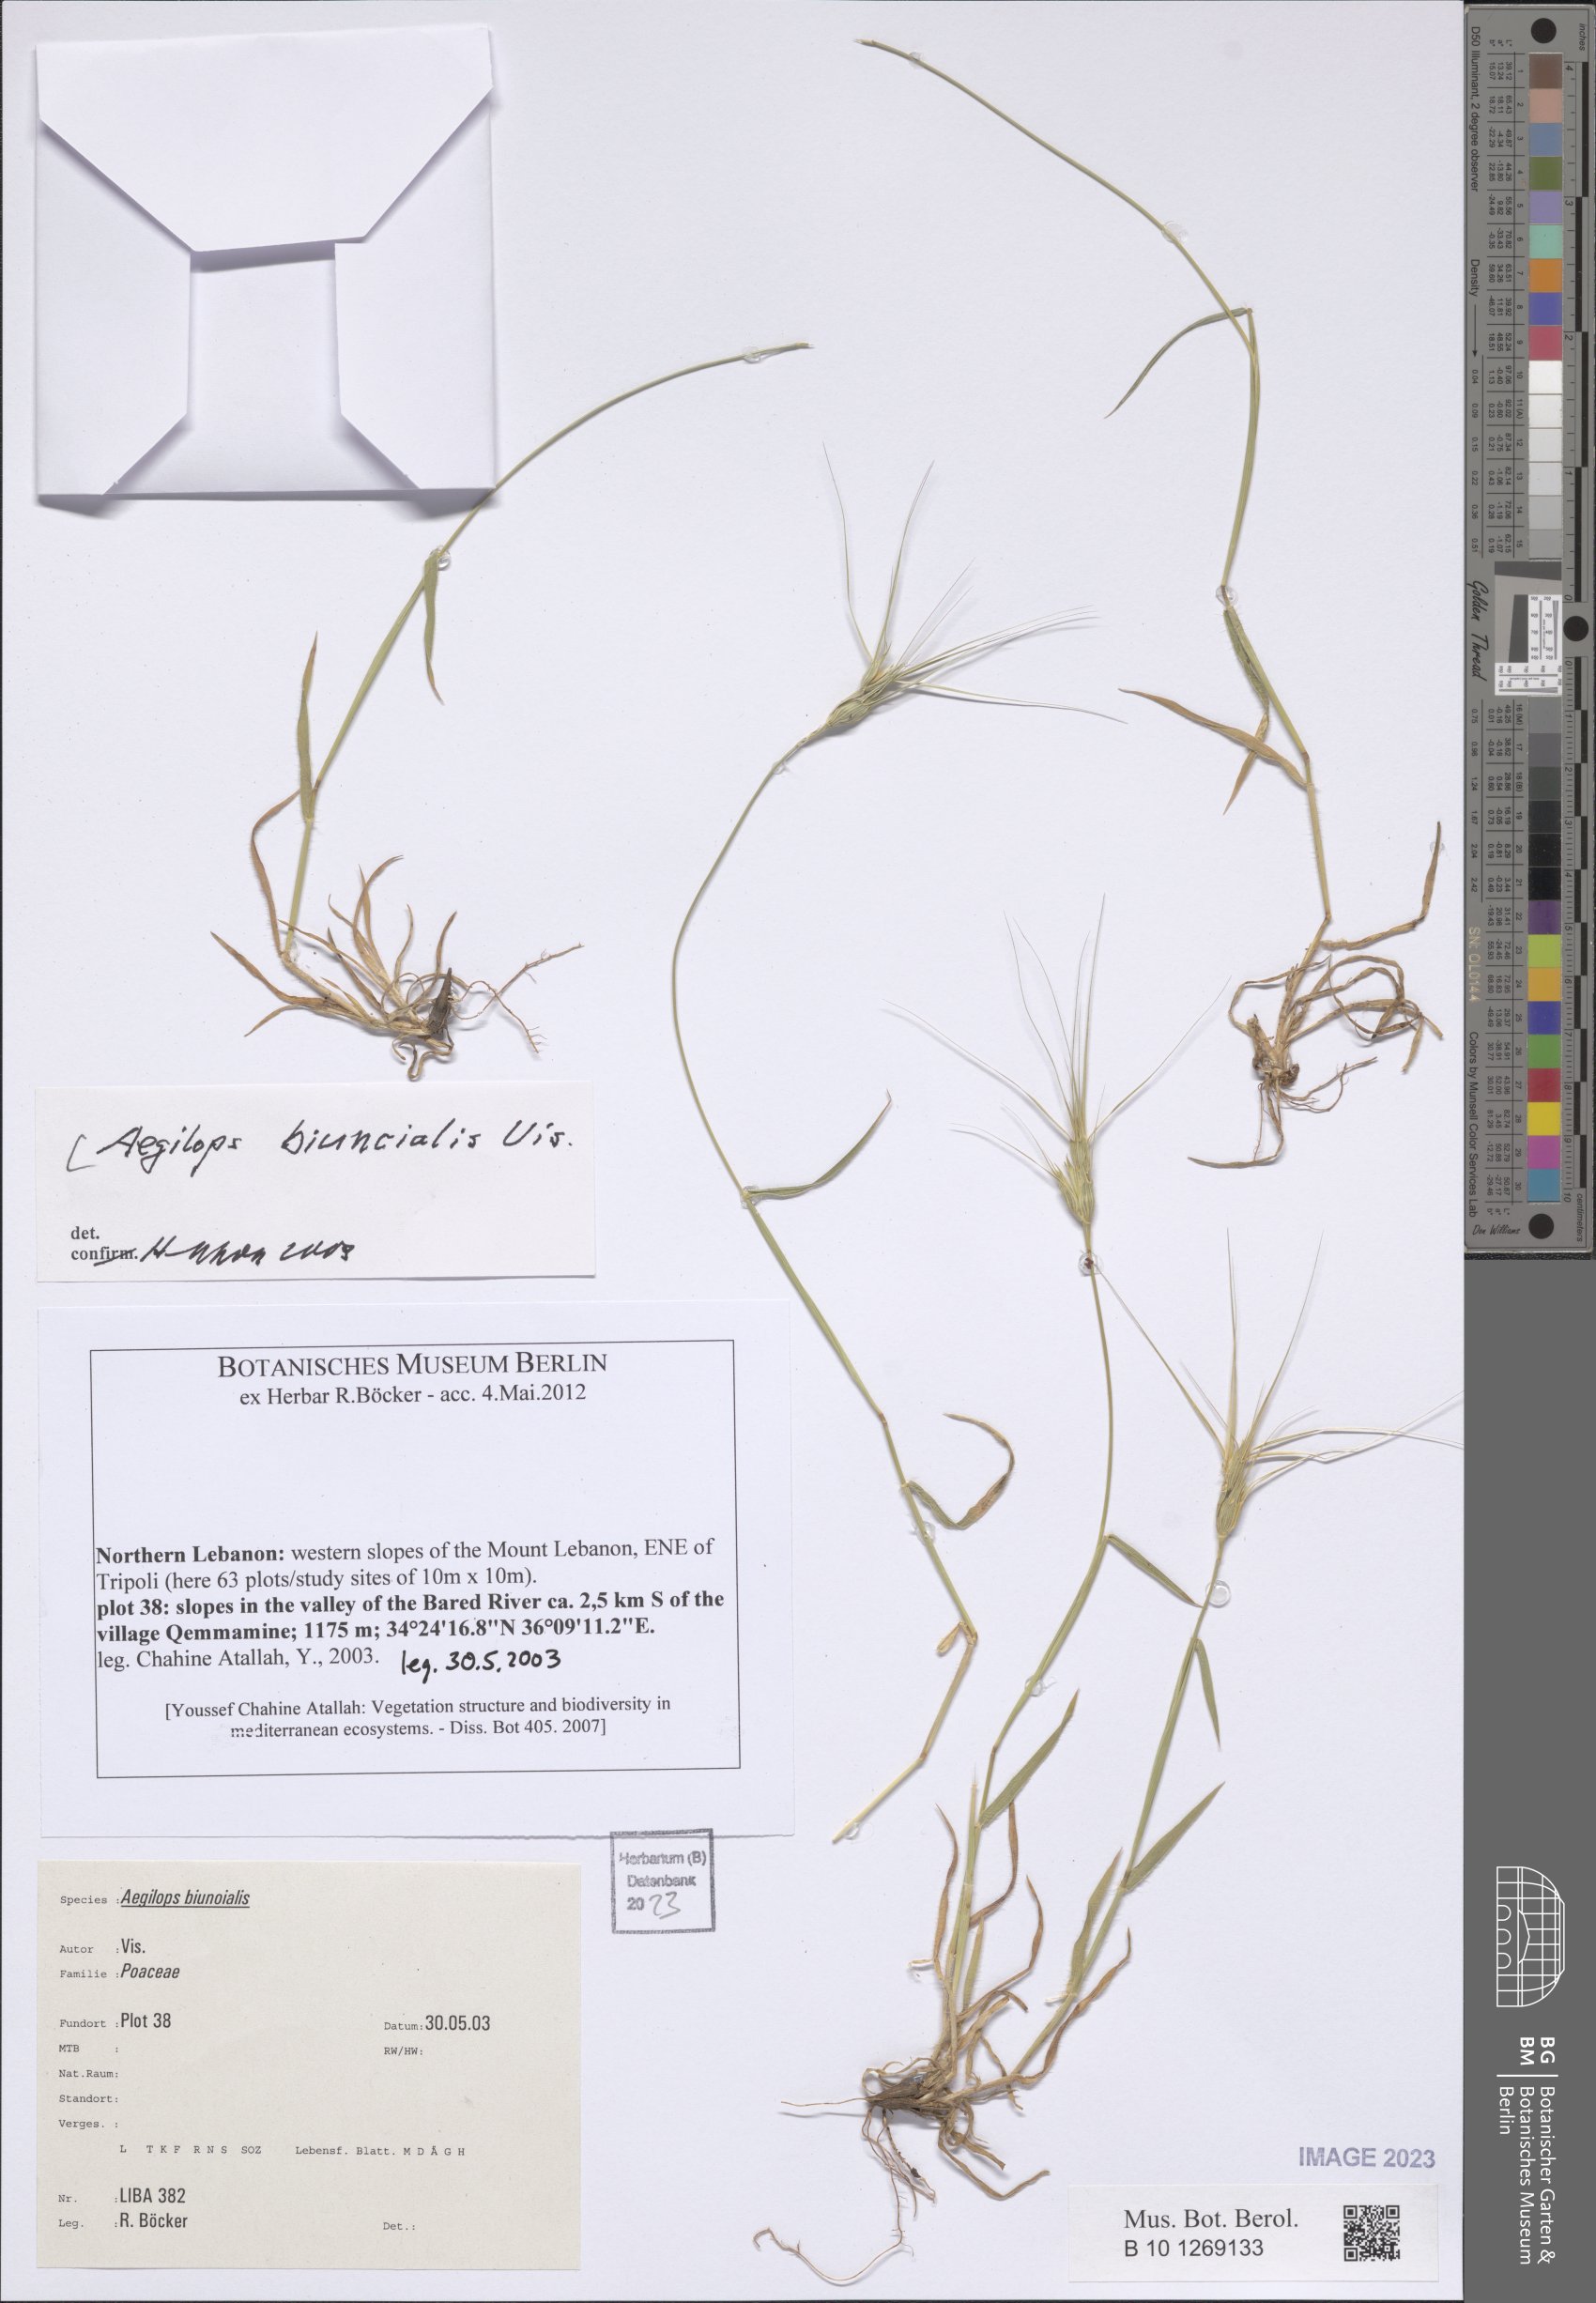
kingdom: Plantae
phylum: Tracheophyta
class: Liliopsida
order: Poales
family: Poaceae
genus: Aegilops
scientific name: Aegilops biuncialis
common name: Mediterranean aegilops
